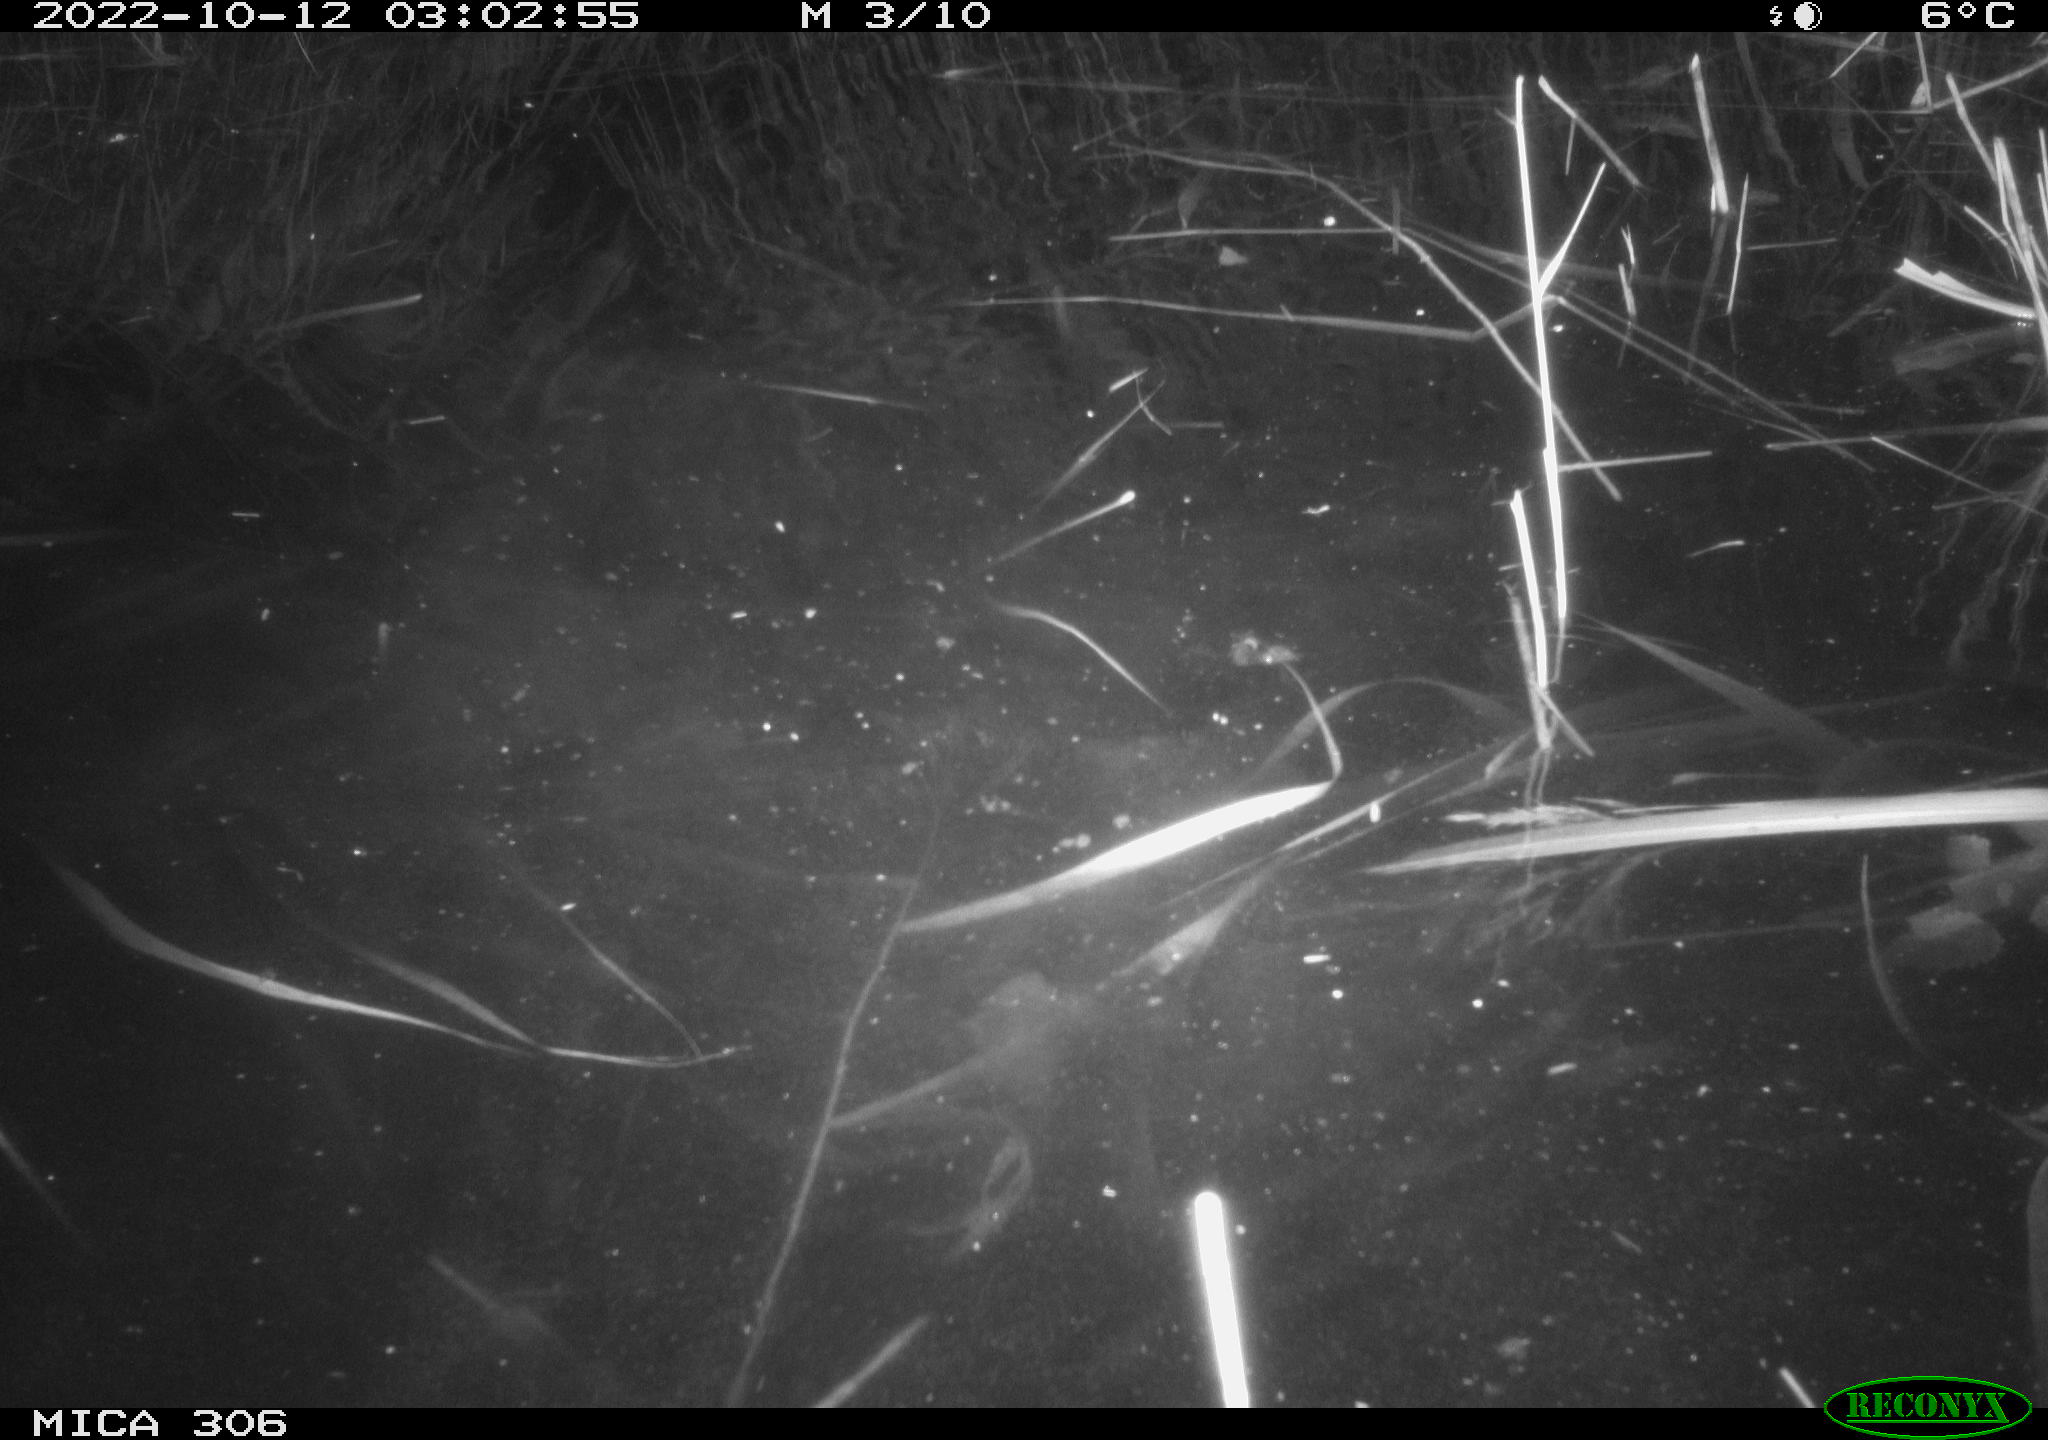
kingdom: Animalia
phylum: Chordata
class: Mammalia
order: Rodentia
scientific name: Rodentia
